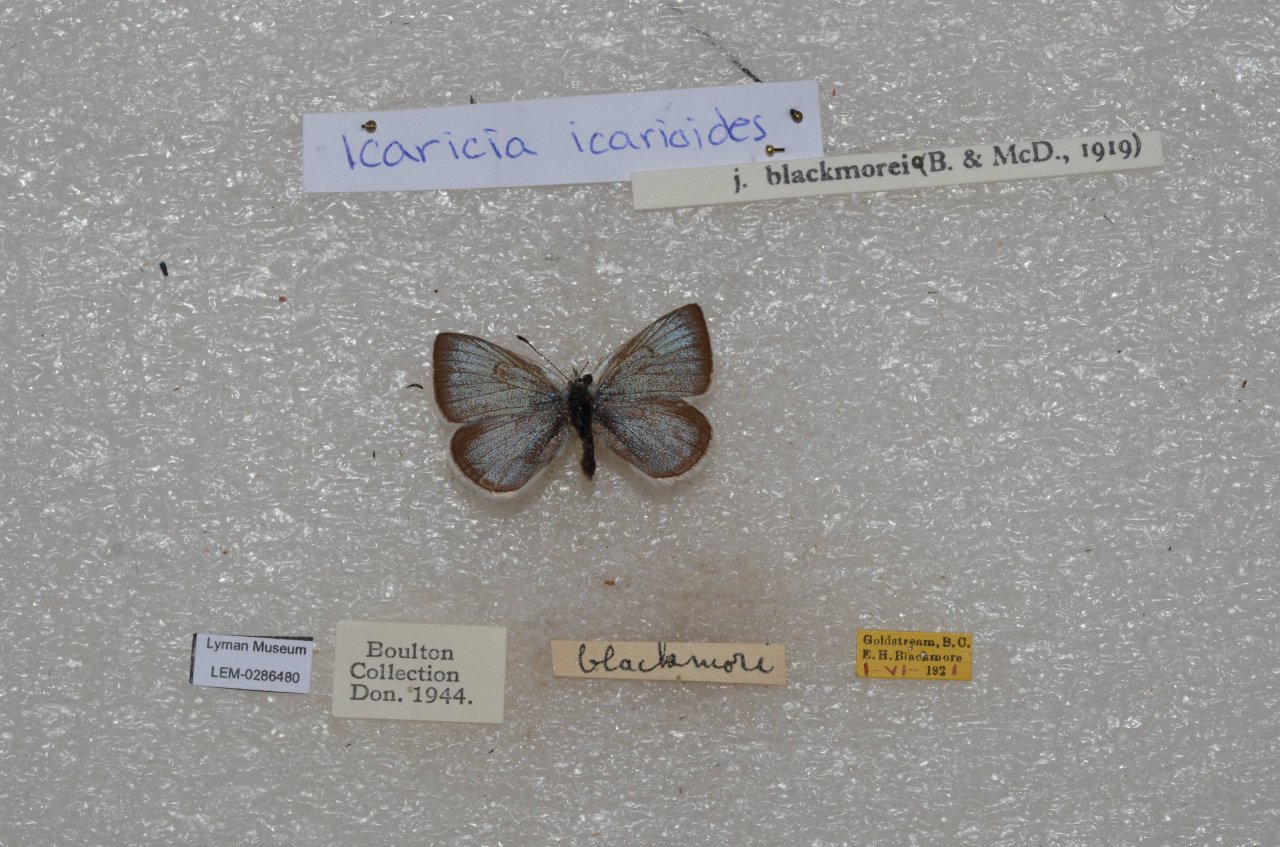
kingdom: Animalia
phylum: Arthropoda
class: Insecta
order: Lepidoptera
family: Lycaenidae
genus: Icaricia
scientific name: Icaricia icarioides
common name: Boisduval's Blue
